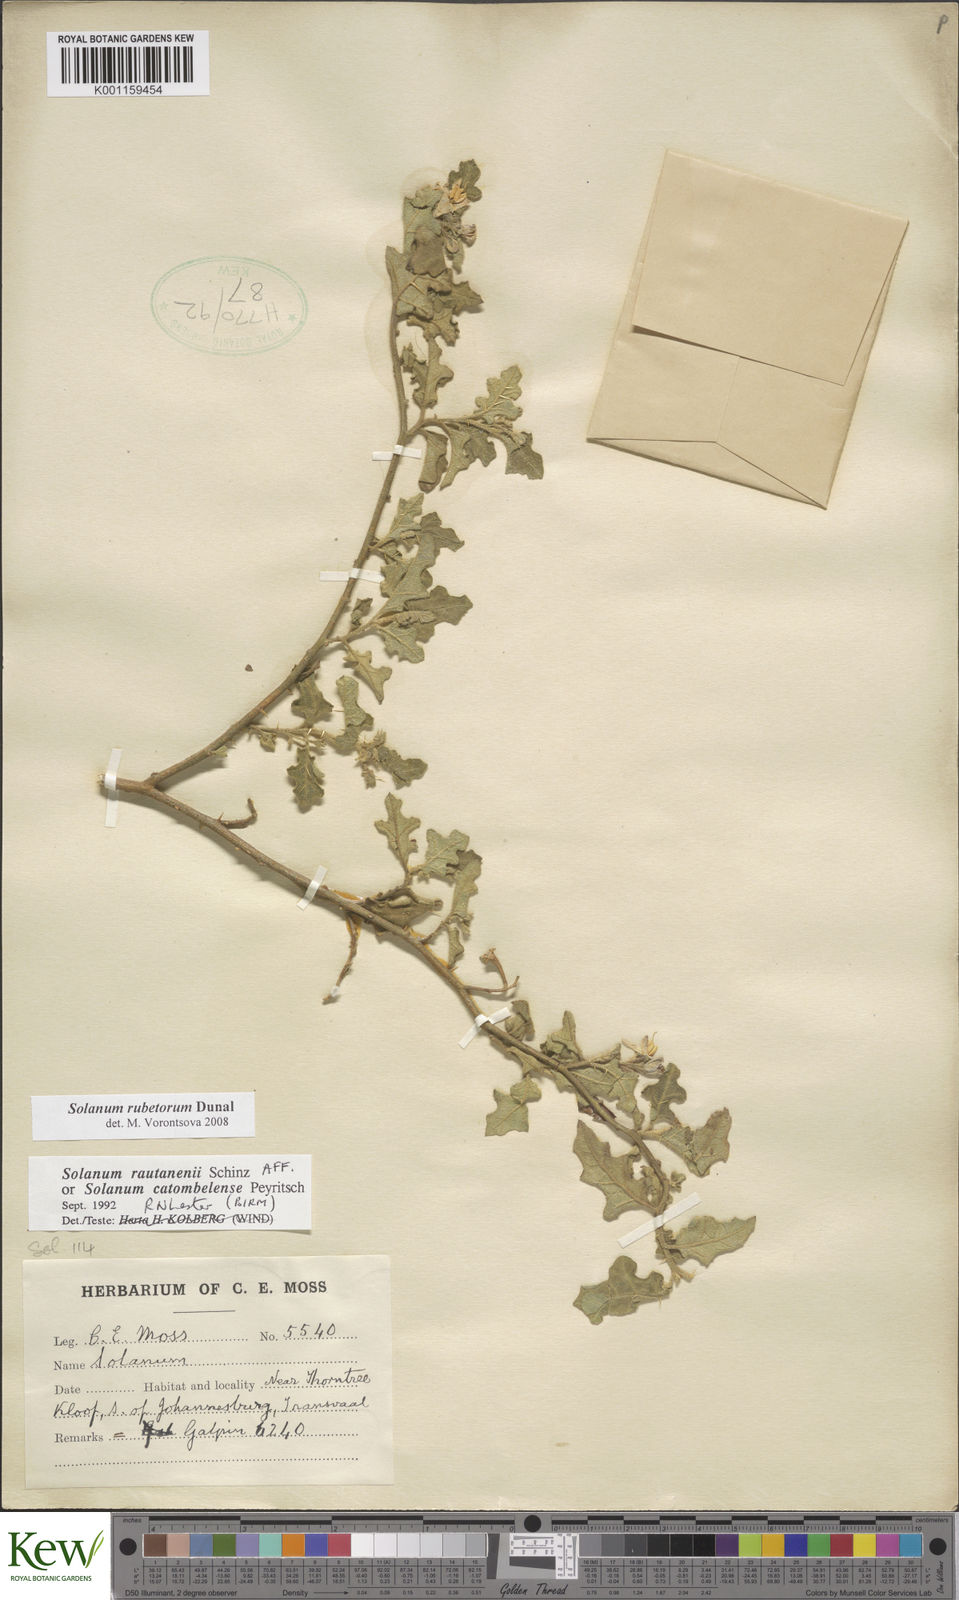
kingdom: Plantae
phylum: Tracheophyta
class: Magnoliopsida
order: Solanales
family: Solanaceae
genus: Solanum
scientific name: Solanum rubetorum
